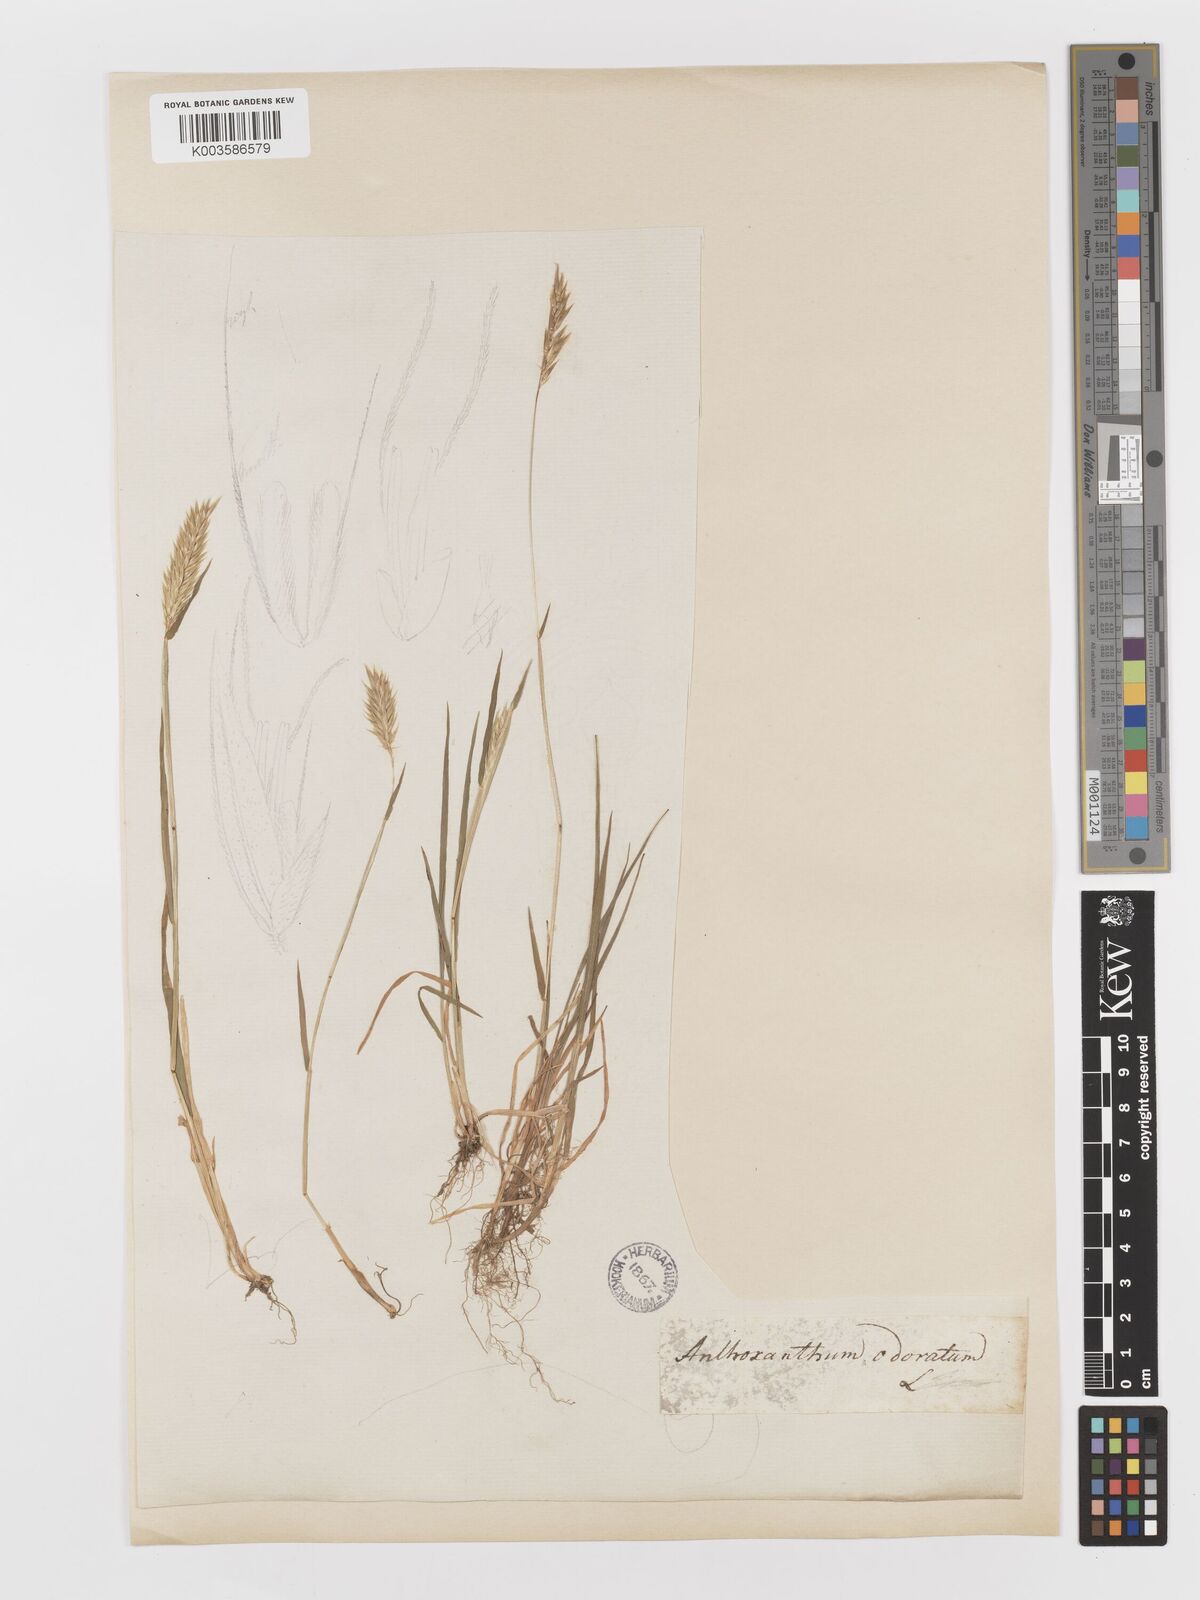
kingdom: Plantae
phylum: Tracheophyta
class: Liliopsida
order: Poales
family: Poaceae
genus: Anthoxanthum
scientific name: Anthoxanthum odoratum
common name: Sweet vernalgrass
